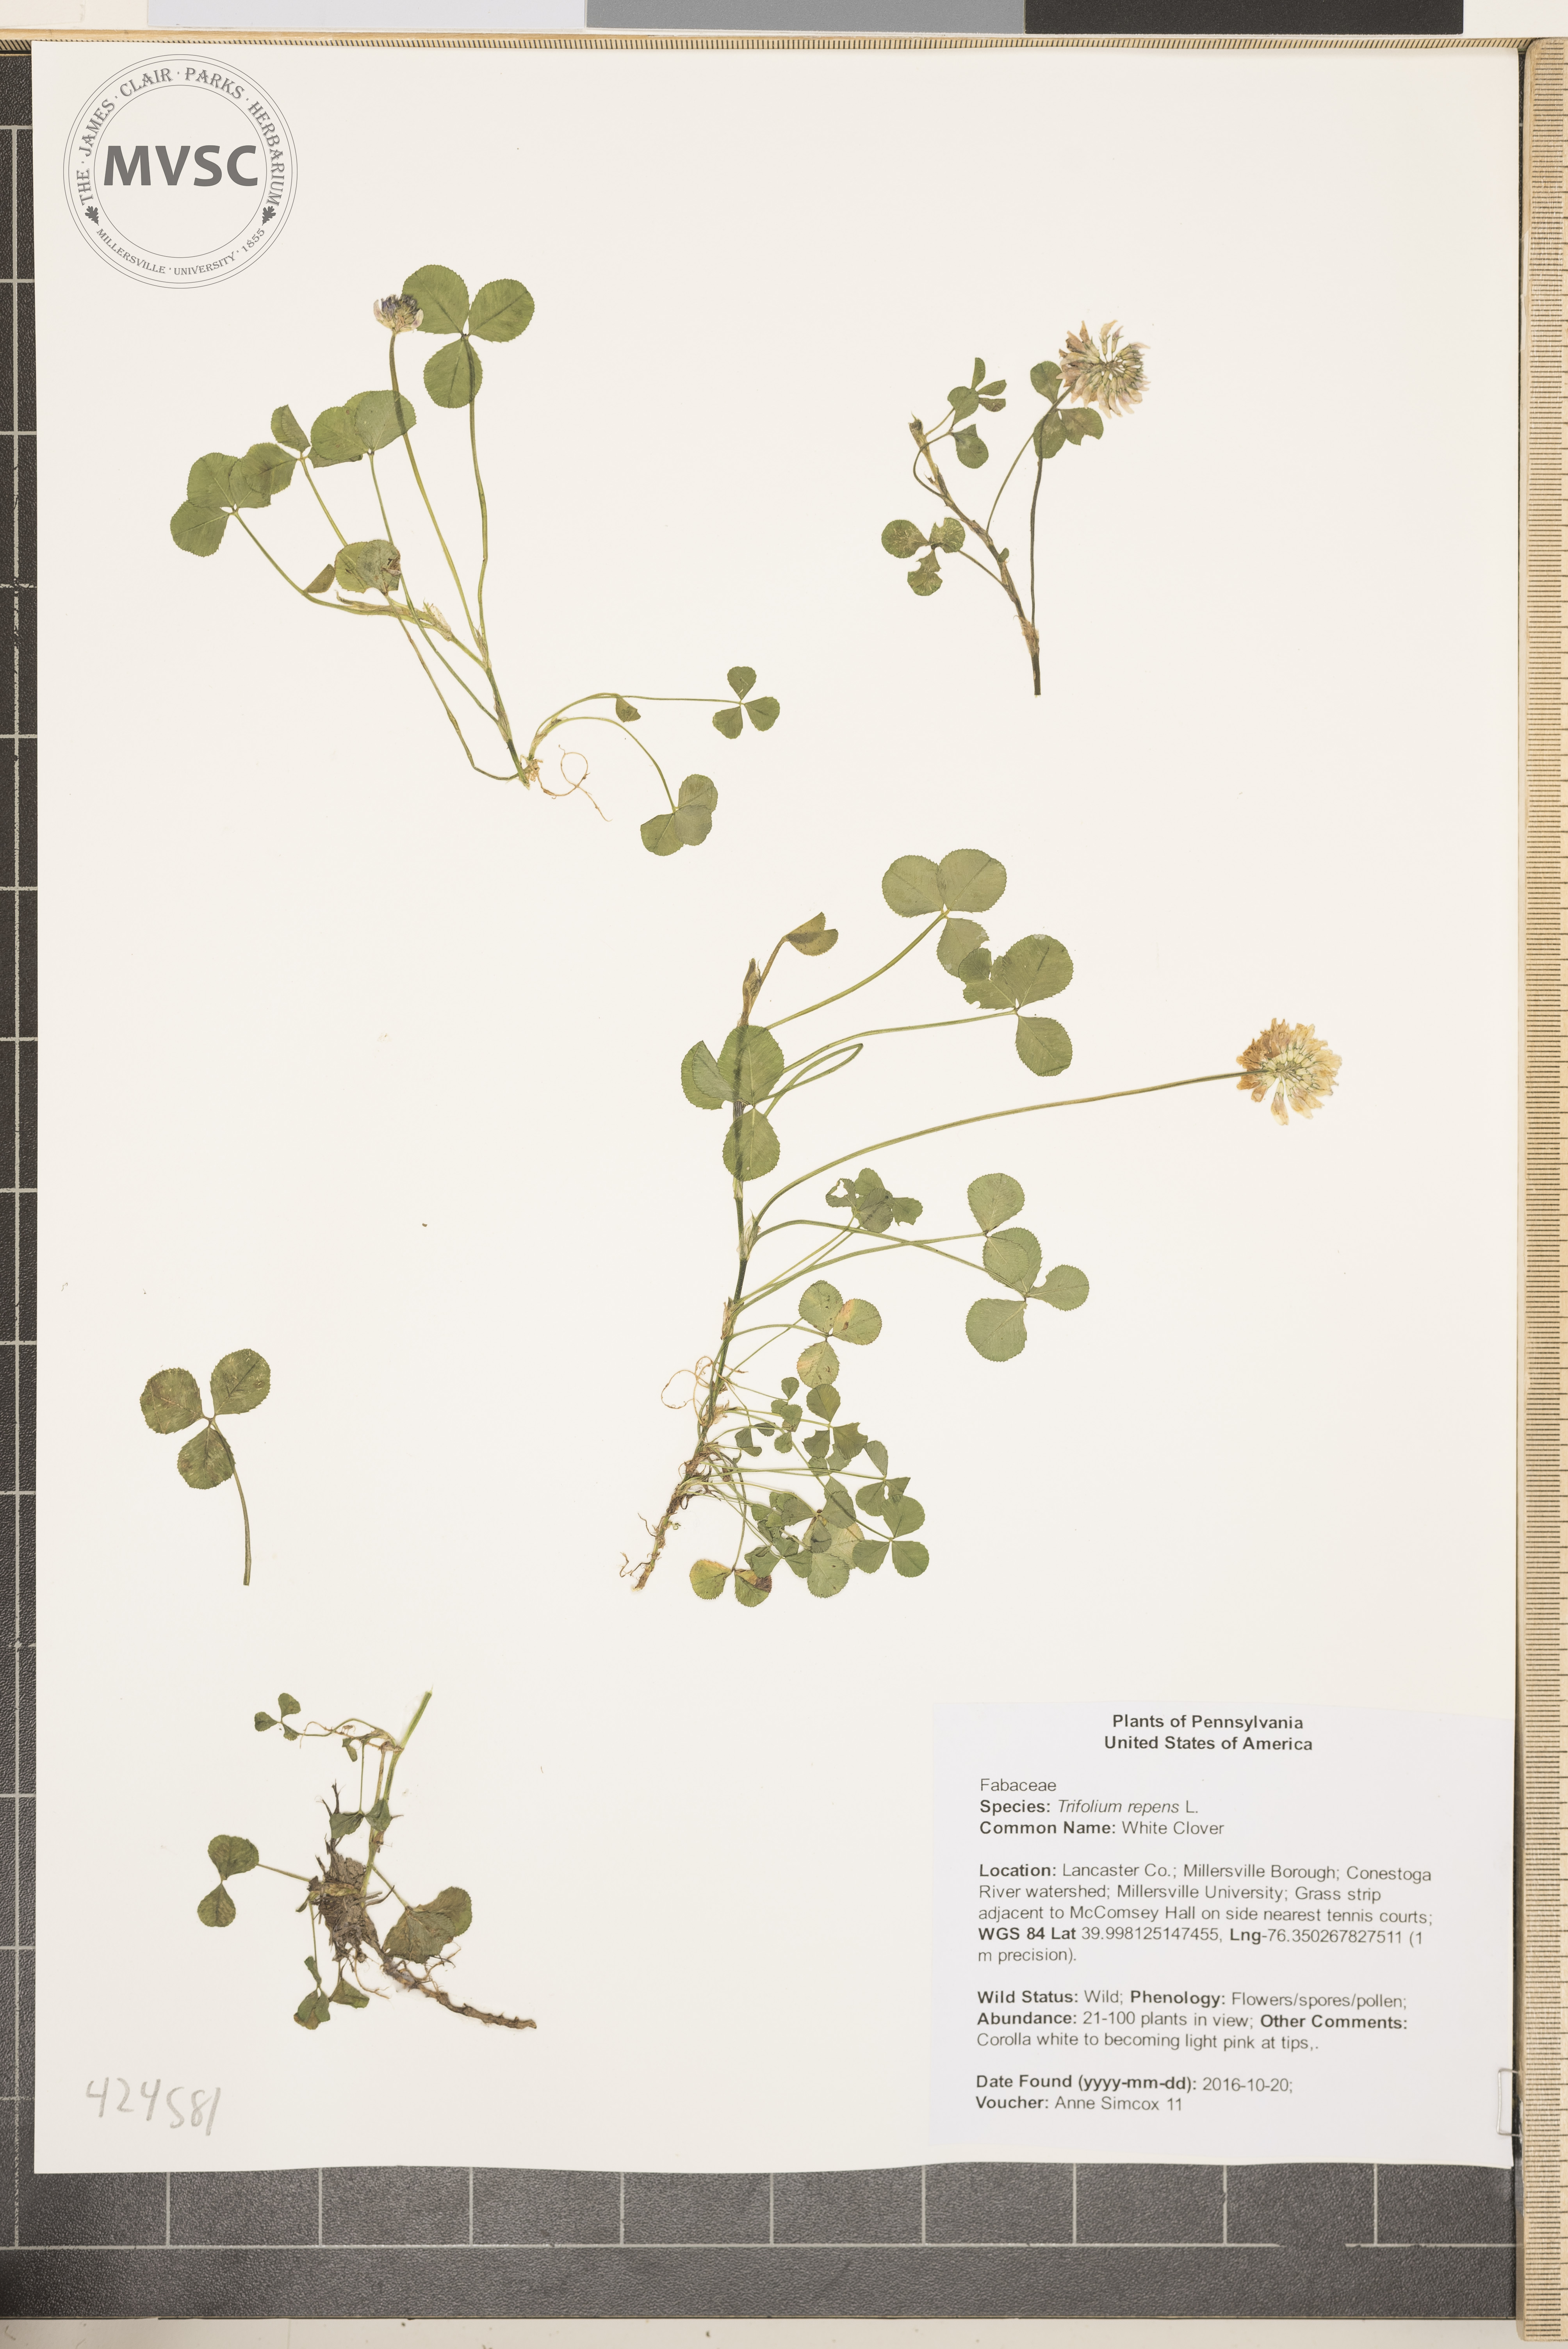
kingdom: Plantae
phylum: Tracheophyta
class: Magnoliopsida
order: Fabales
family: Fabaceae
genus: Trifolium
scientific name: Trifolium repens
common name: White Clover
